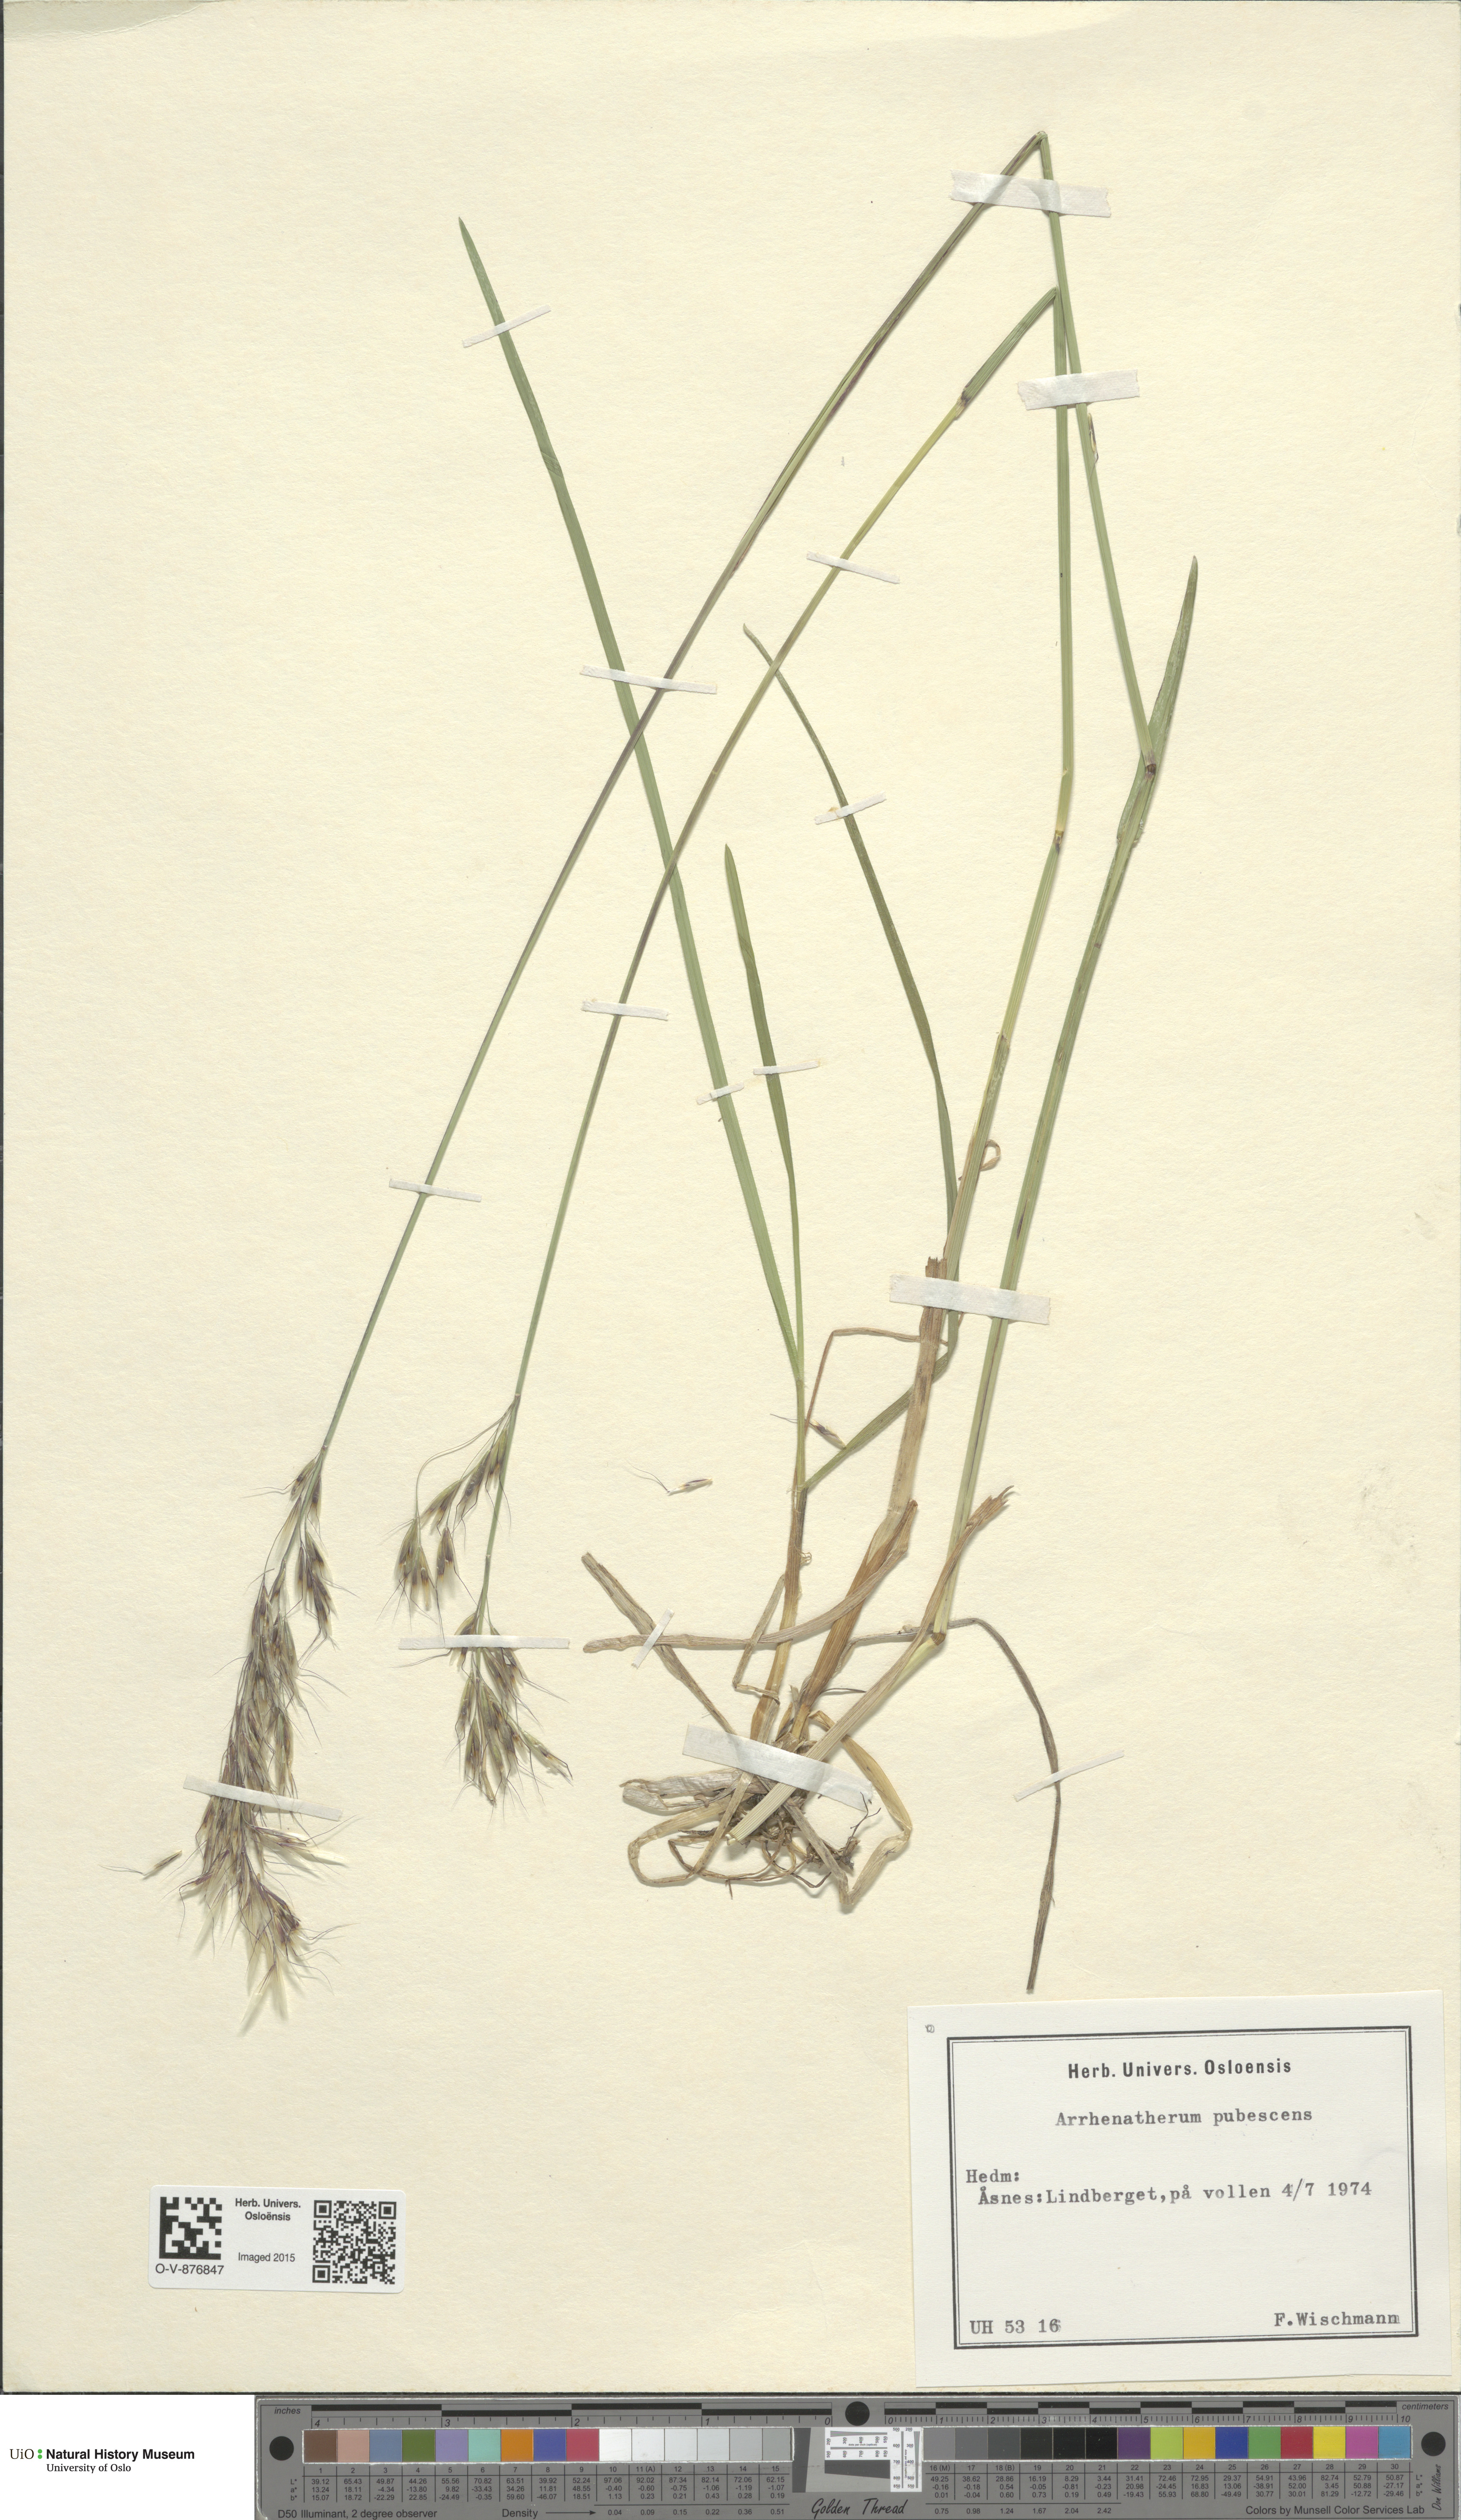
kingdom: Plantae
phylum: Tracheophyta
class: Liliopsida
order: Poales
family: Poaceae
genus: Avenula
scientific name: Avenula pubescens
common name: Downy alpine oatgrass
